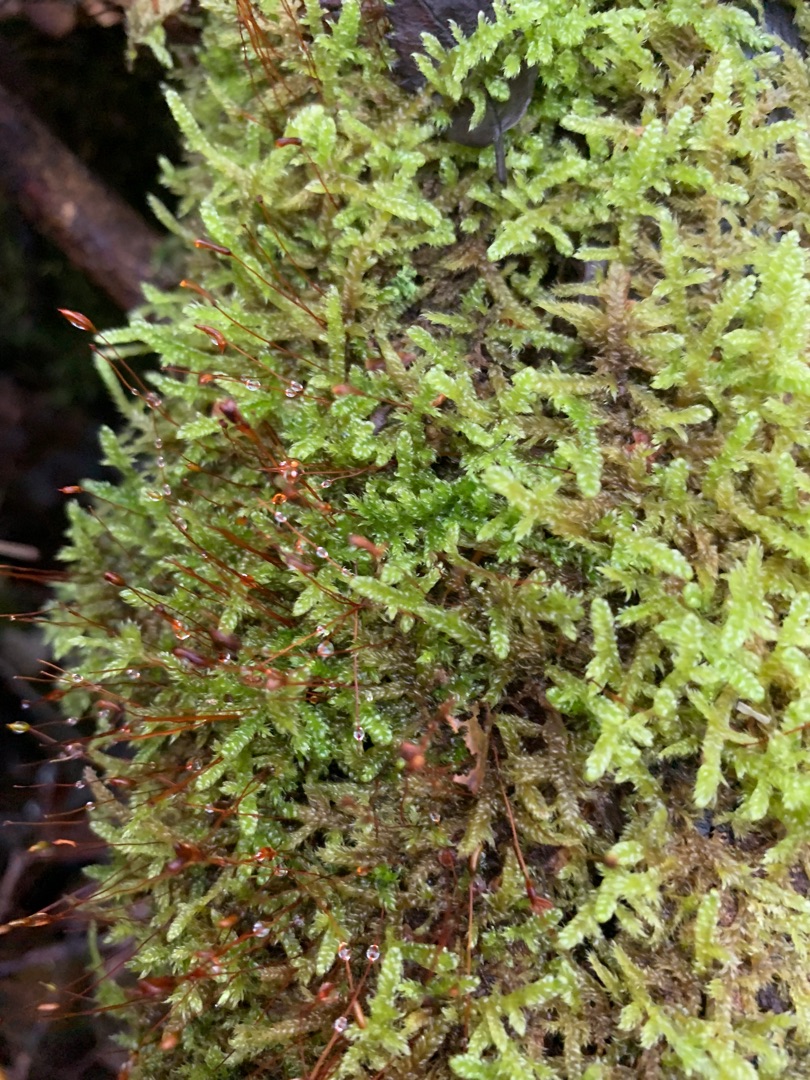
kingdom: Plantae
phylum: Bryophyta
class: Bryopsida
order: Hypnales
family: Hypnaceae
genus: Hypnum
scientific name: Hypnum cupressiforme
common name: Almindelig cypresmos
